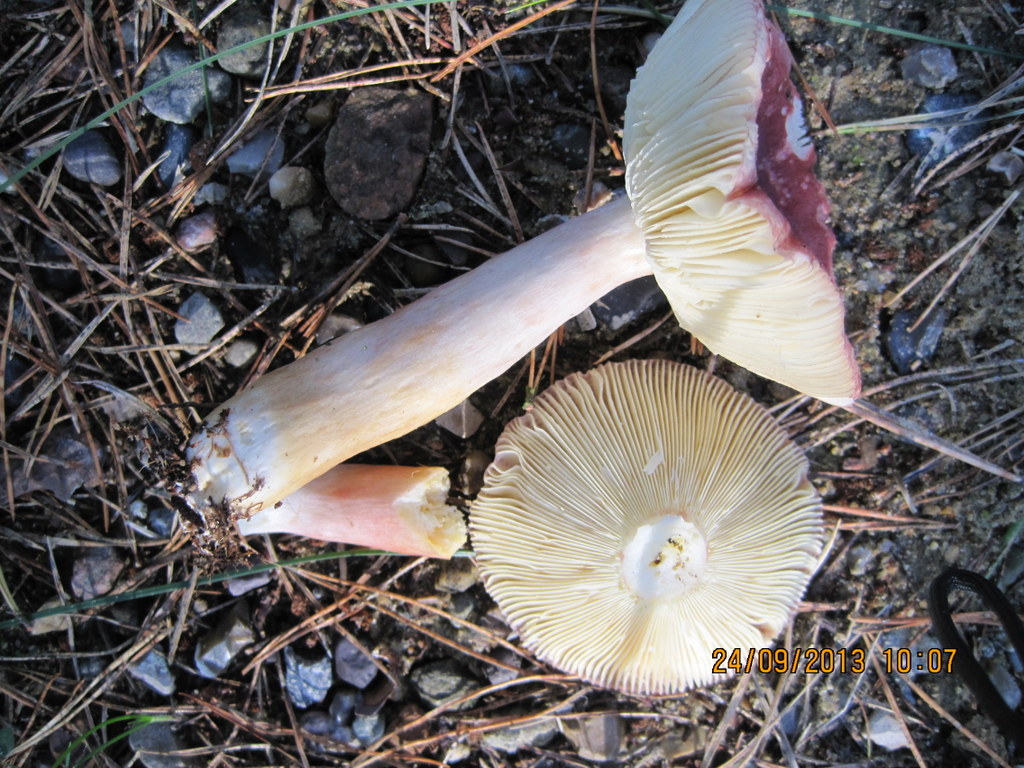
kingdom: Fungi
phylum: Basidiomycota
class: Agaricomycetes
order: Russulales
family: Russulaceae
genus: Russula
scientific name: Russula sardonia
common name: citronbladet skørhat
